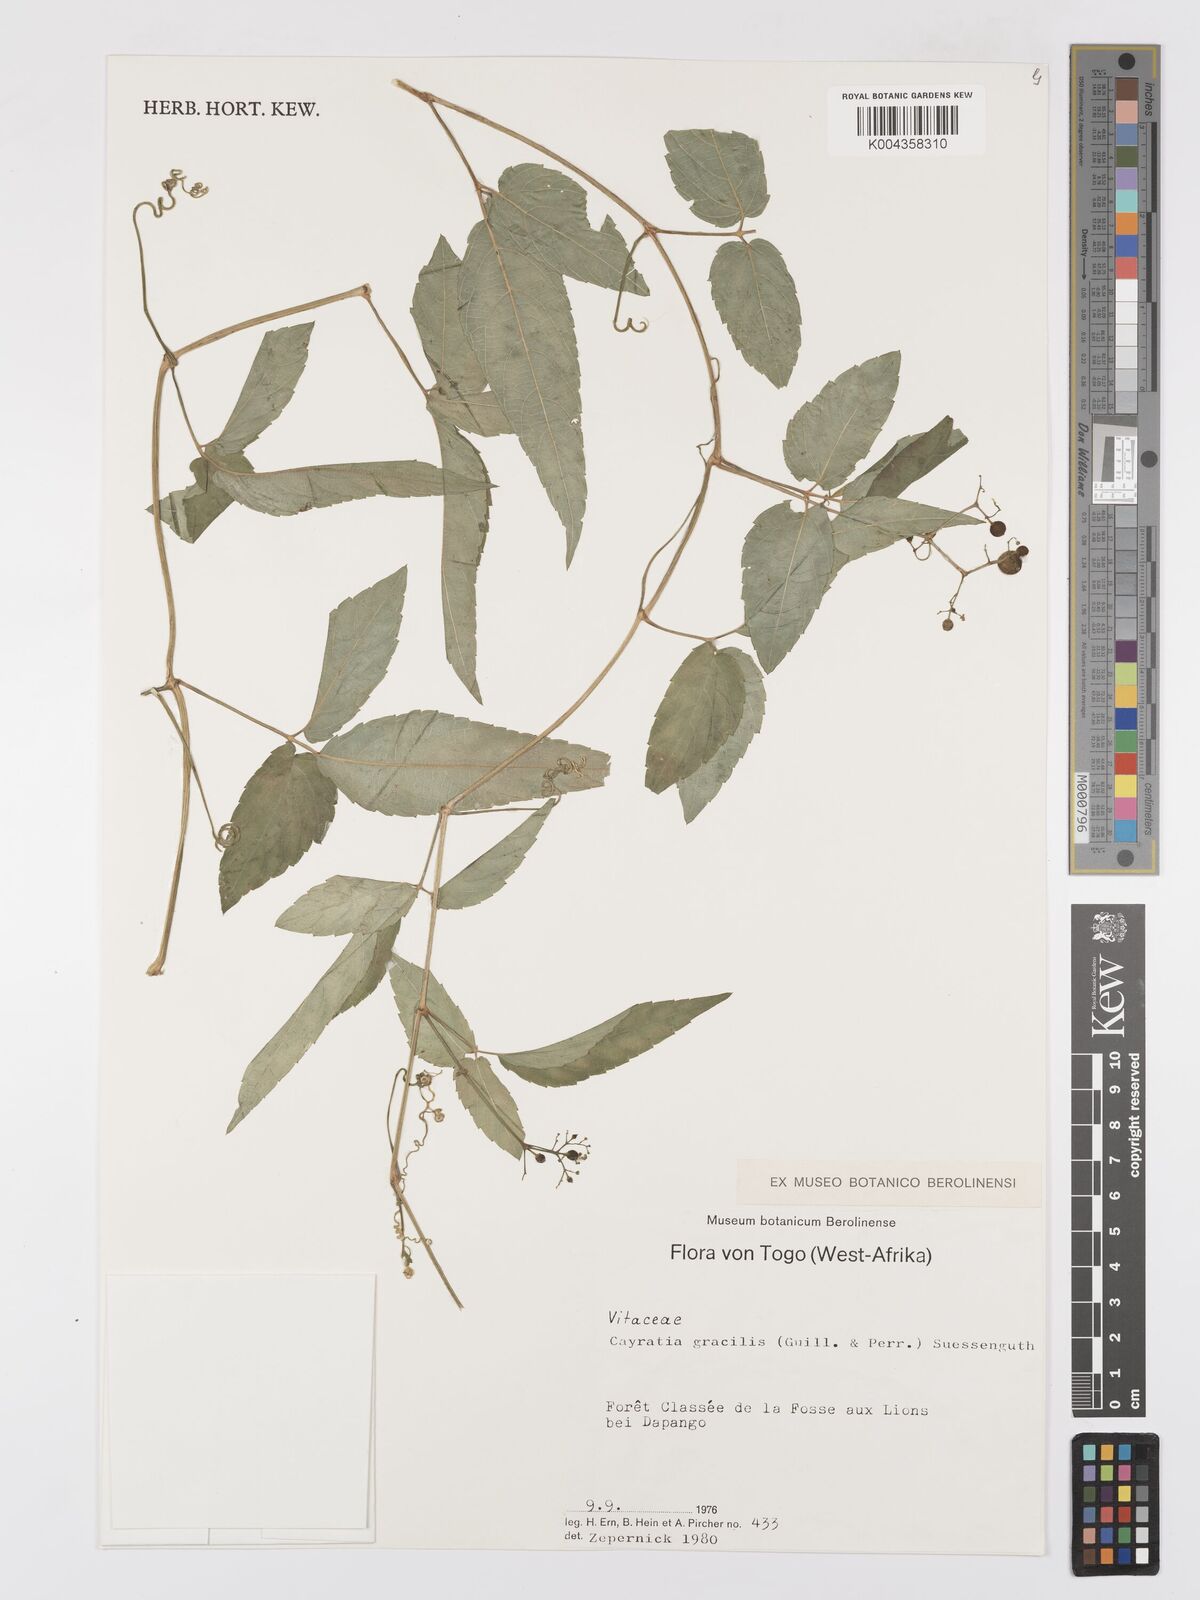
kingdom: Plantae
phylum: Tracheophyta
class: Magnoliopsida
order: Vitales
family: Vitaceae
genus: Afrocayratia
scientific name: Afrocayratia gracilis
